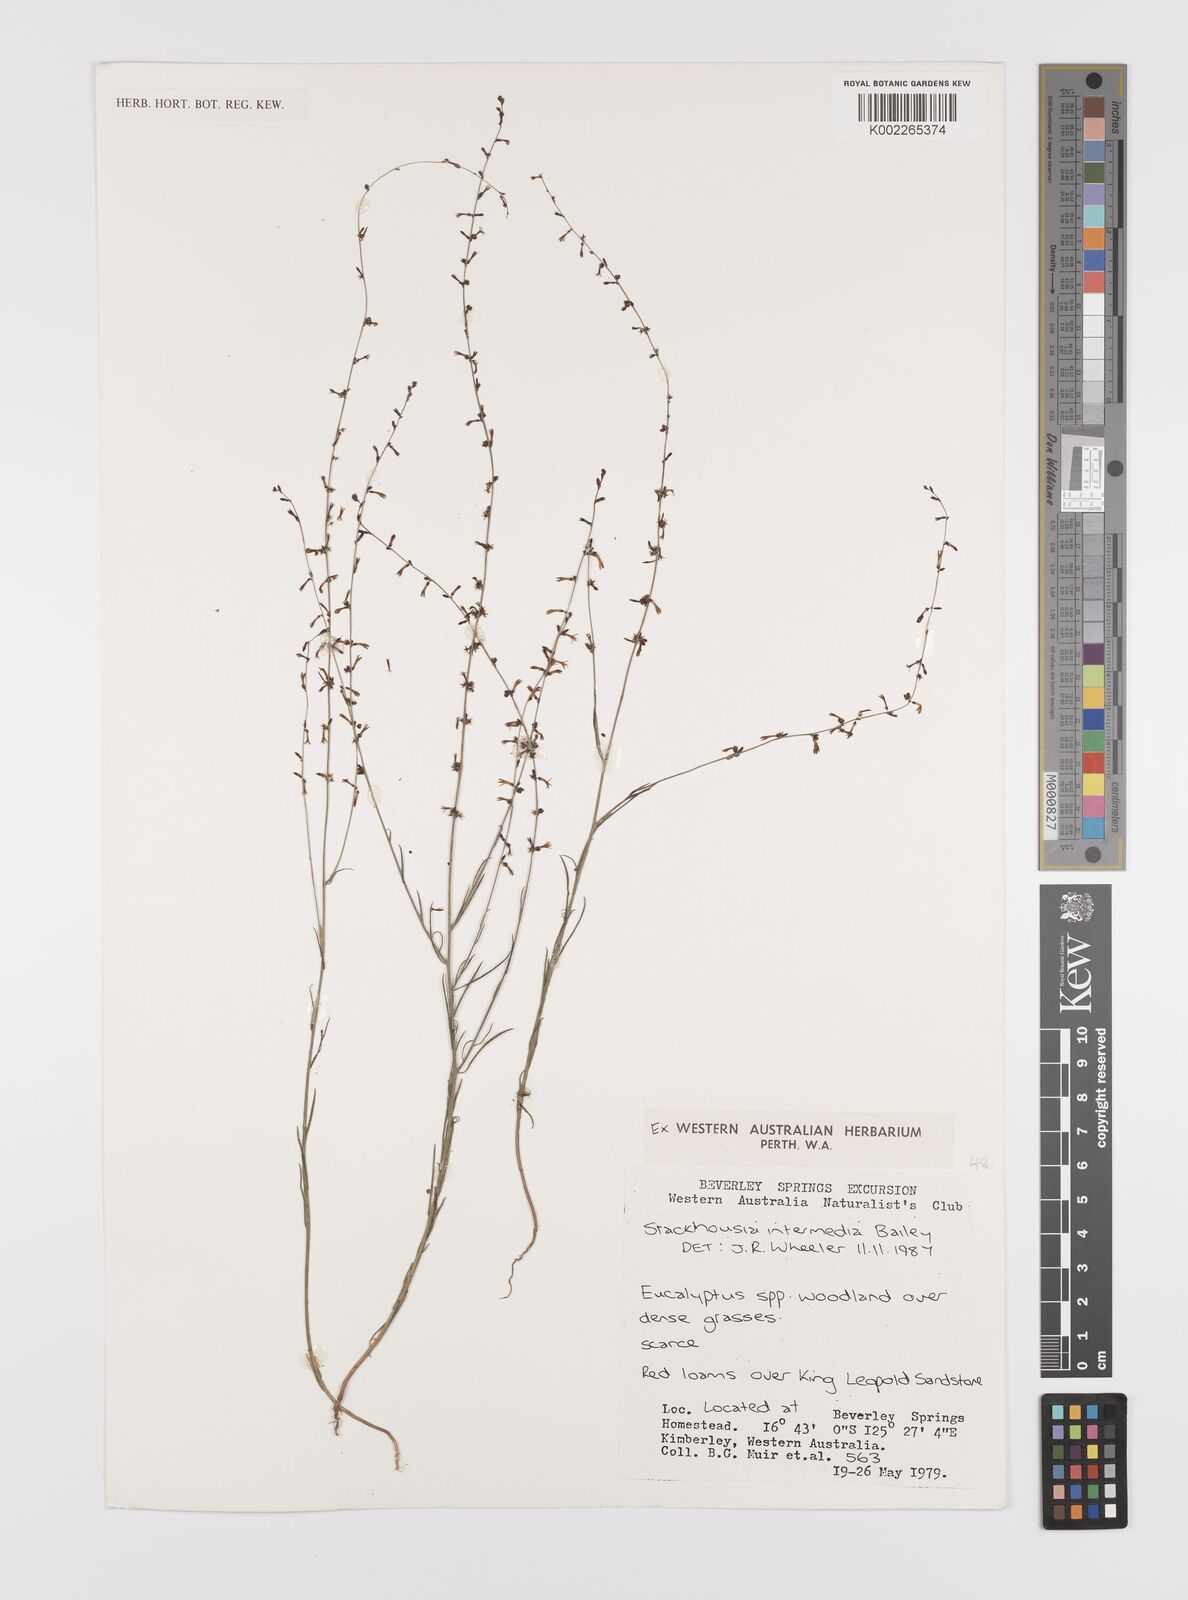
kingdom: Plantae
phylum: Tracheophyta
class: Magnoliopsida
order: Celastrales
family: Celastraceae
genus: Stackhousia
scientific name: Stackhousia intermedia
